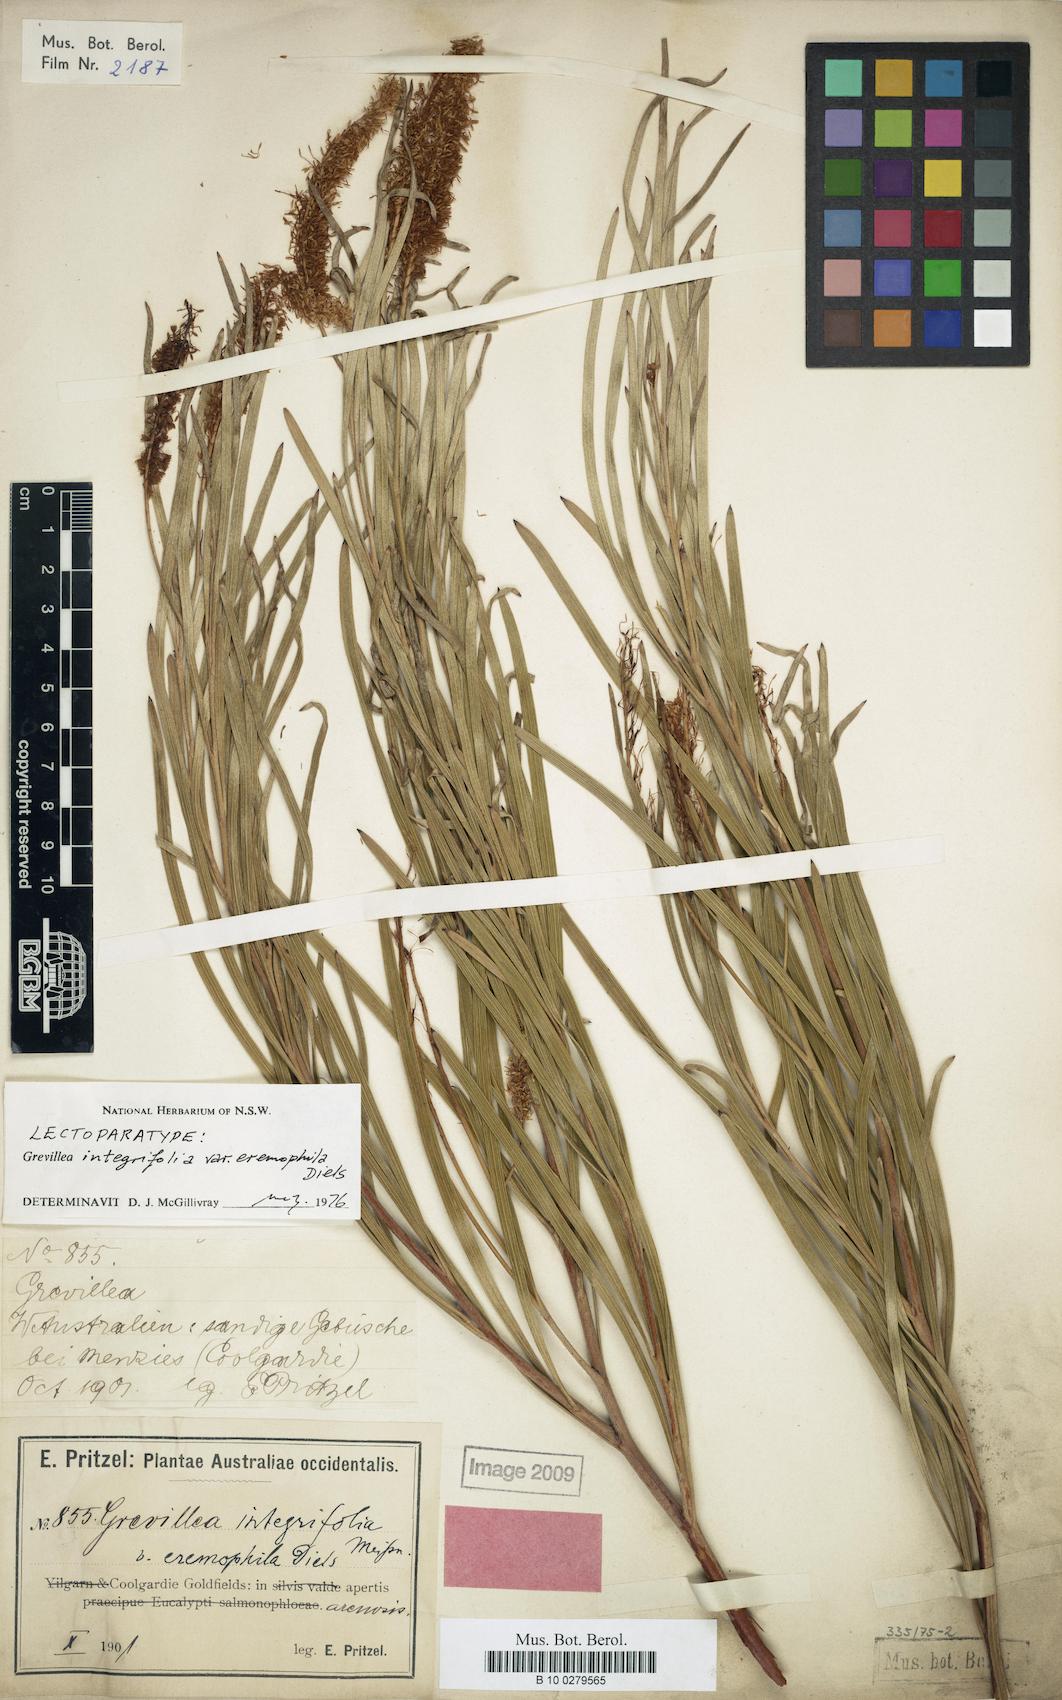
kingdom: Plantae
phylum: Tracheophyta
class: Magnoliopsida
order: Proteales
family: Proteaceae
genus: Grevillea
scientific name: Grevillea eremophila
